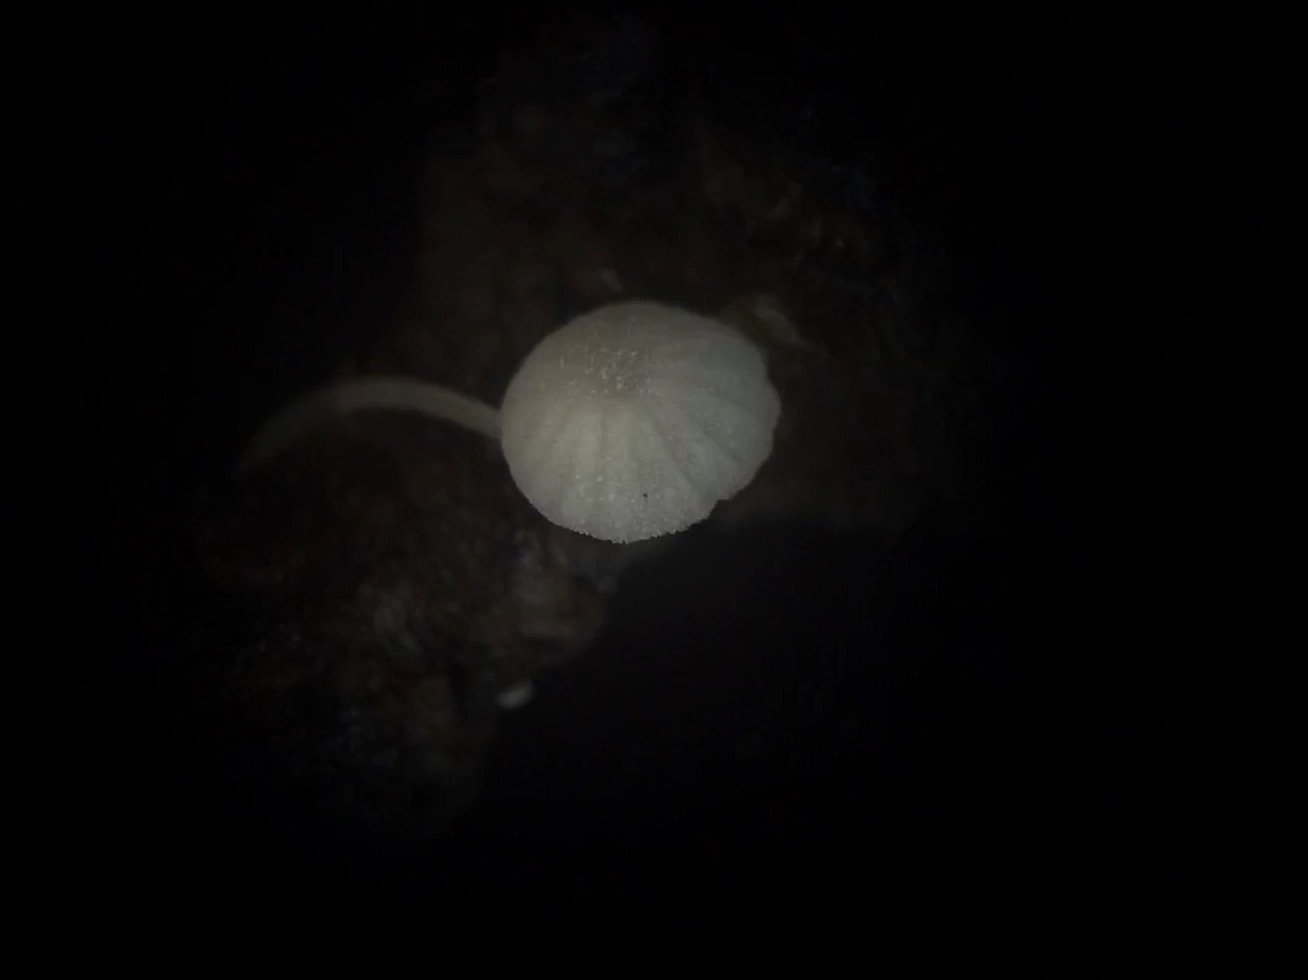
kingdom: Fungi
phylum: Basidiomycota
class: Agaricomycetes
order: Agaricales
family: Mycenaceae
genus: Mycena
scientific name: Mycena tenerrima
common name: pudret huesvamp
